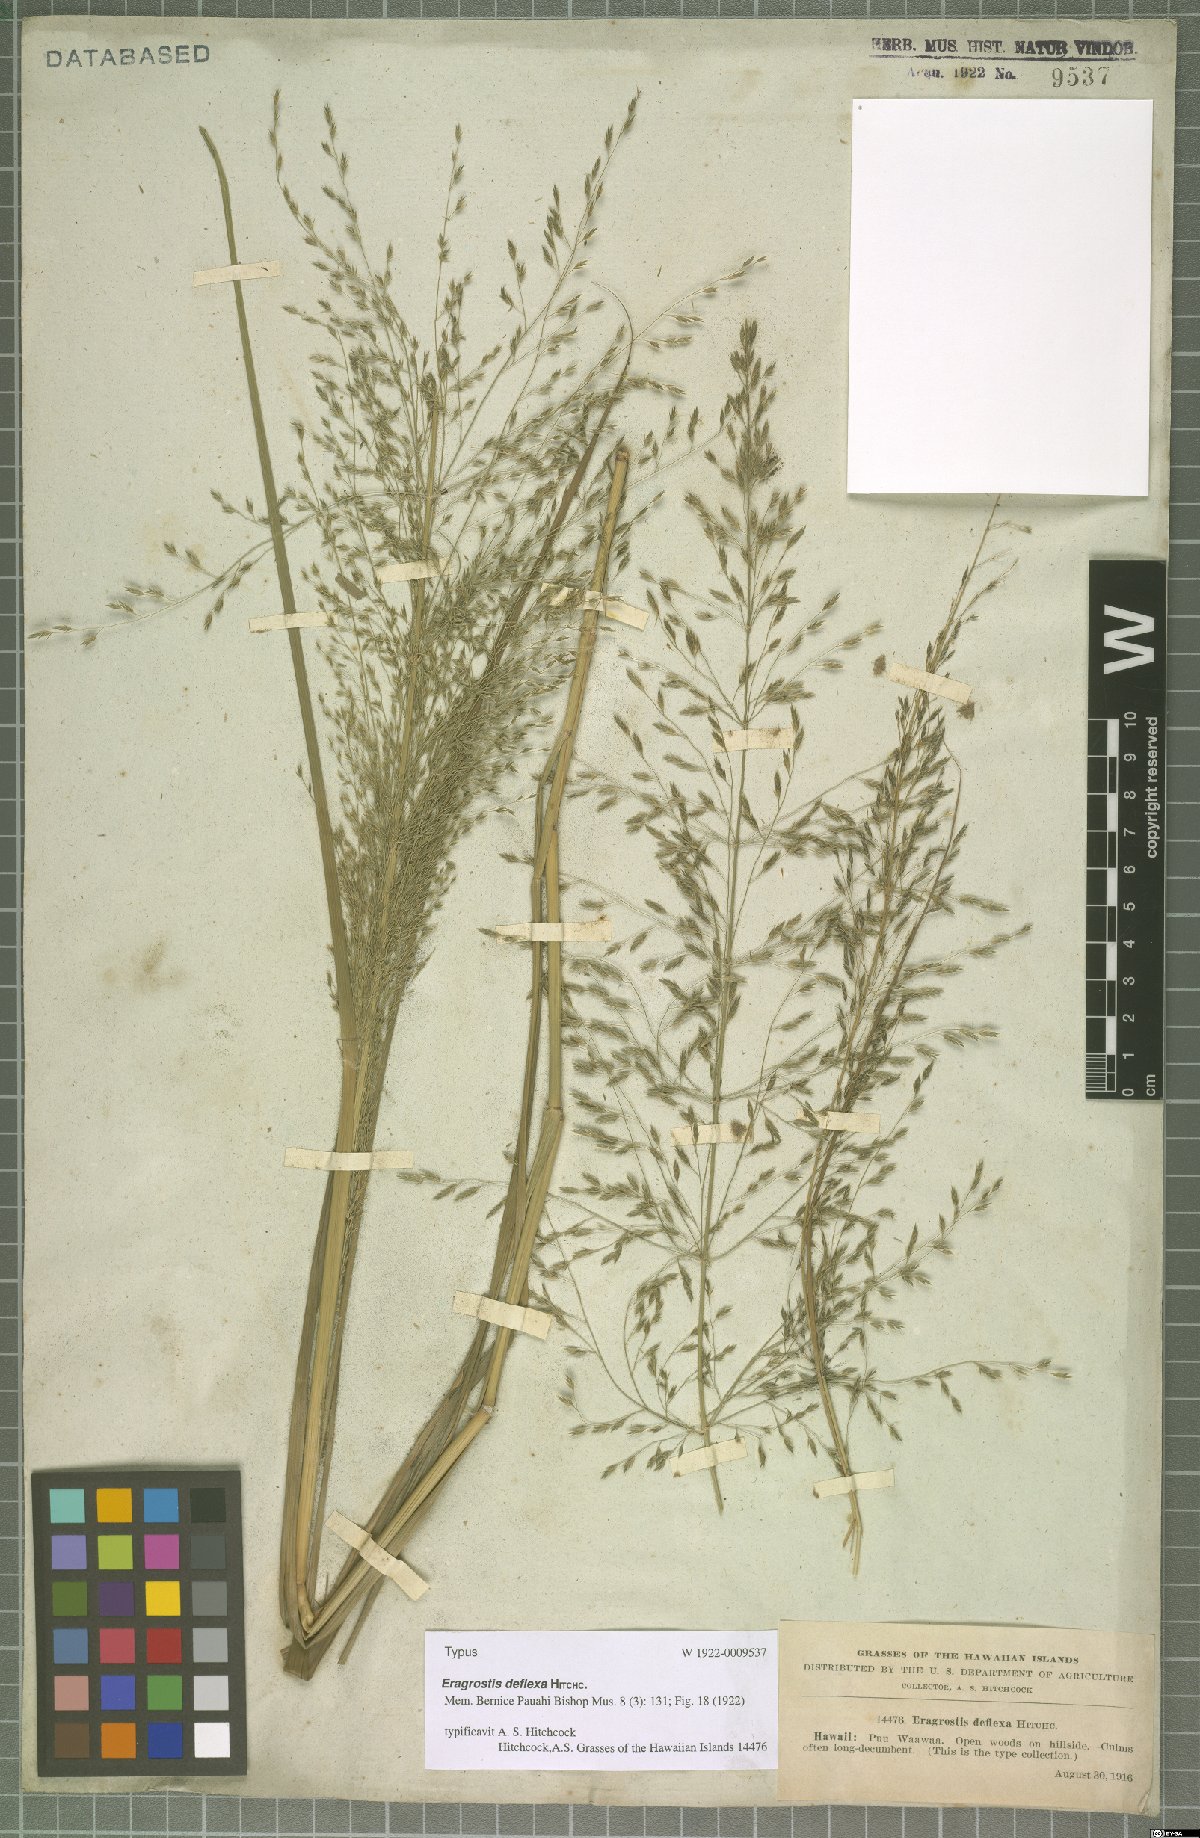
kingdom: Plantae
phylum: Tracheophyta
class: Liliopsida
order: Poales
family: Poaceae
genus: Eragrostis
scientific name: Eragrostis deflexa
